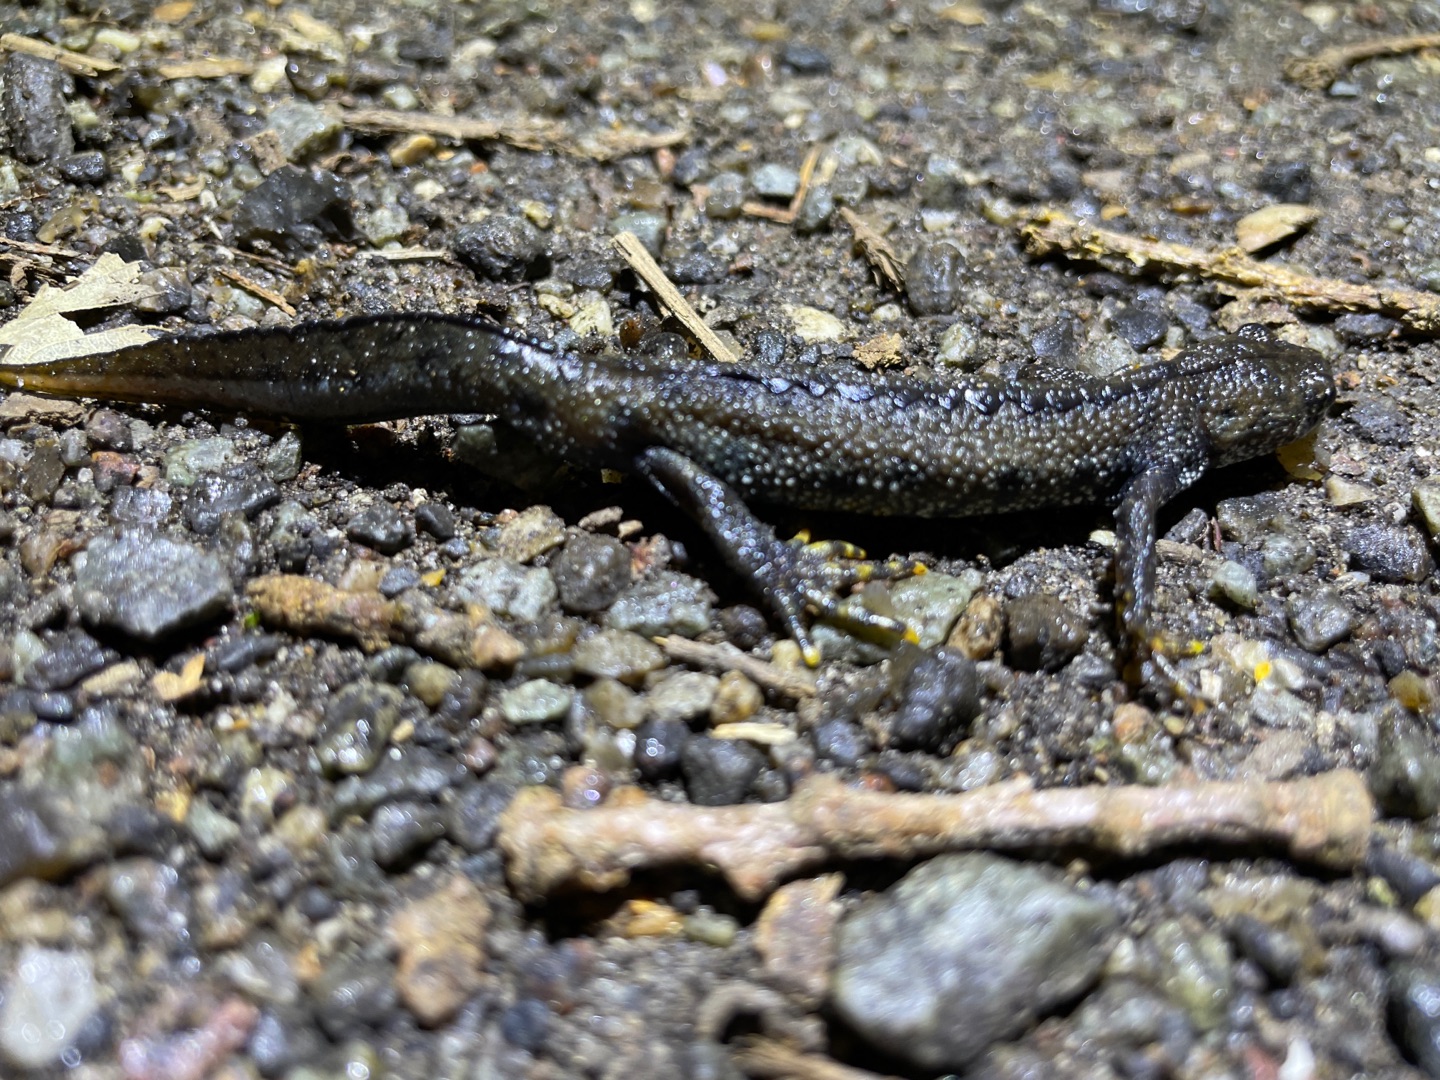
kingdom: Animalia
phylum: Chordata
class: Amphibia
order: Caudata
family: Salamandridae
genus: Triturus
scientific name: Triturus cristatus
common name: Stor vandsalamander
